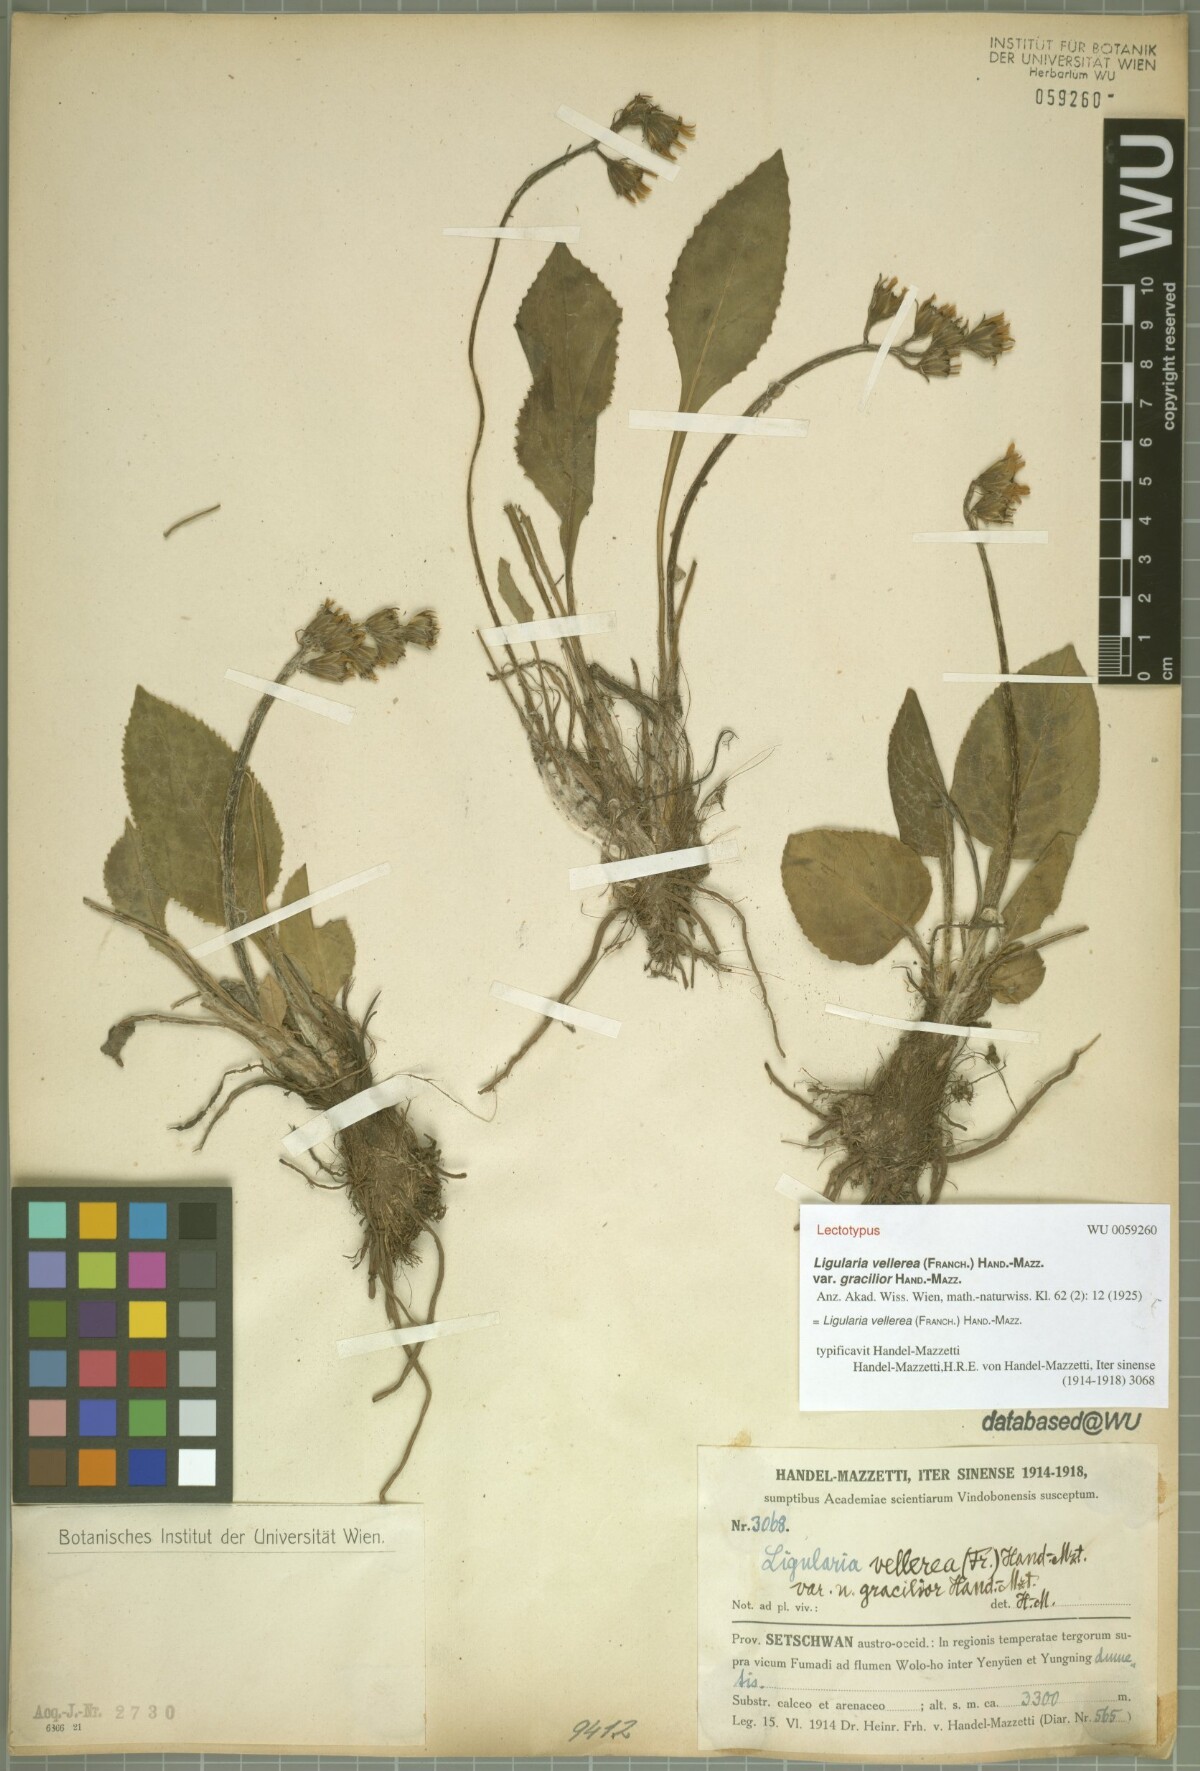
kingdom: Plantae
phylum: Tracheophyta
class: Magnoliopsida
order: Asterales
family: Asteraceae
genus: Ligularia
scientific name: Ligularia vellerea
